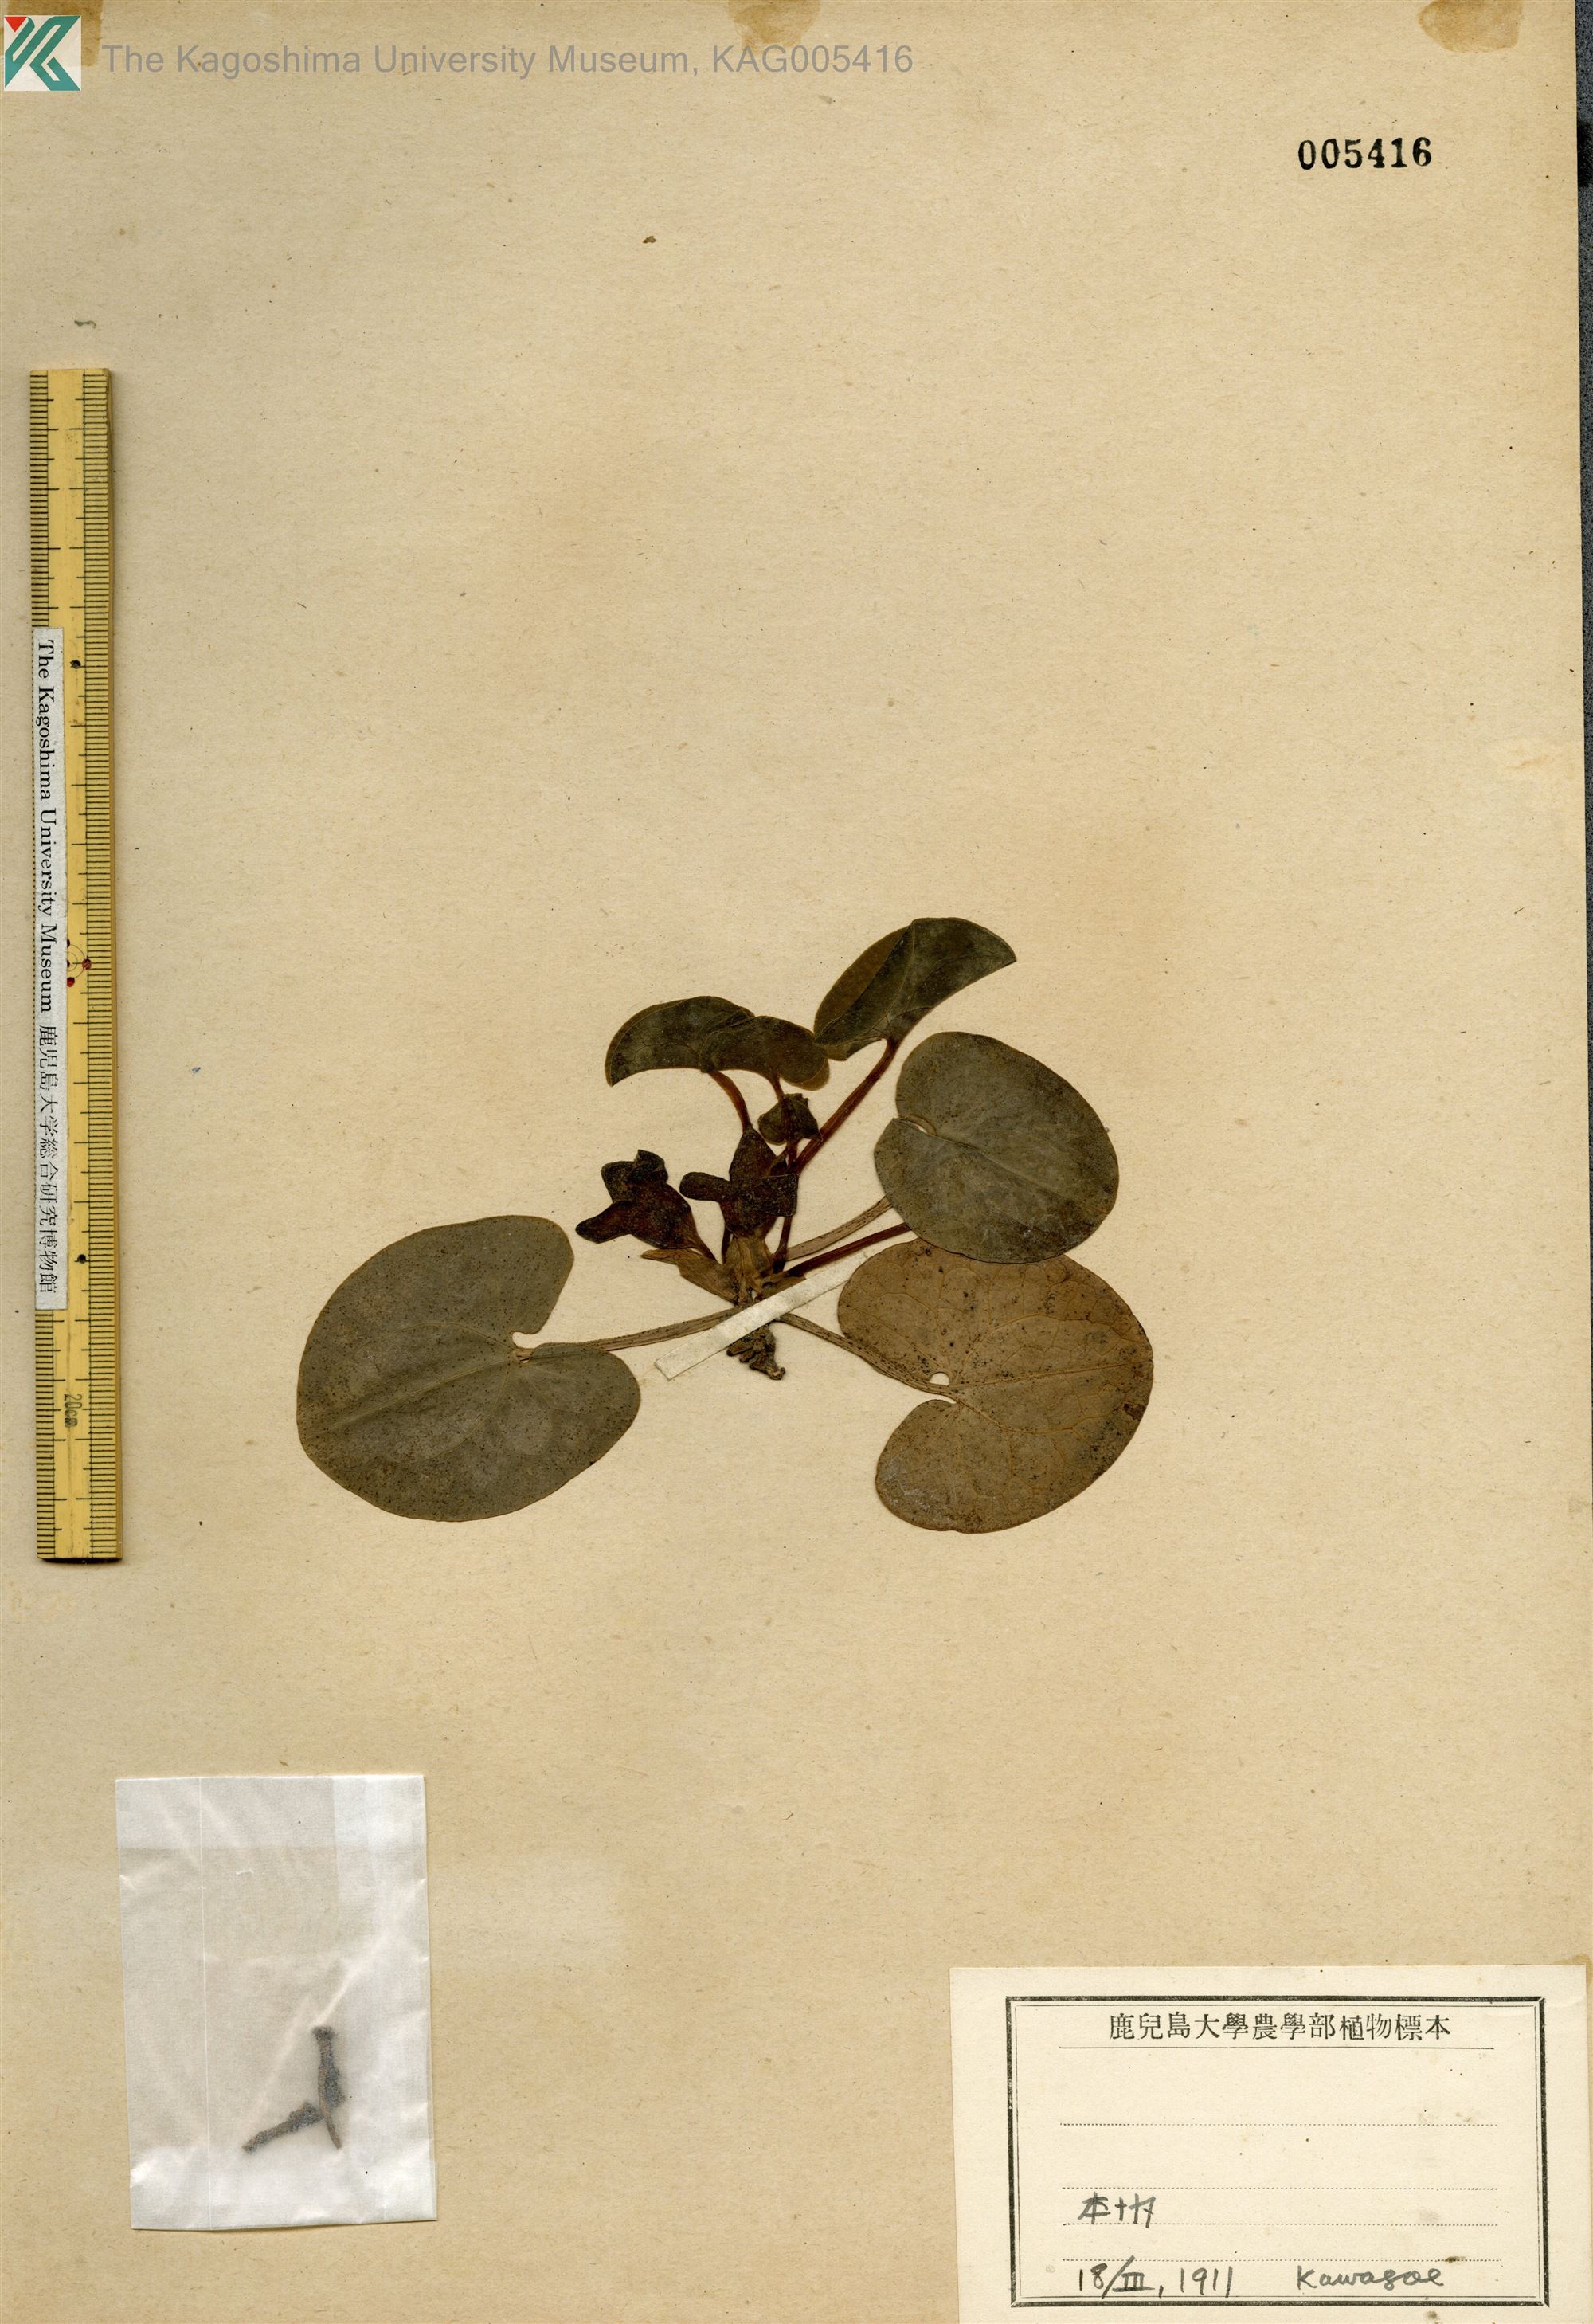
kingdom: Plantae
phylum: Tracheophyta
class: Magnoliopsida
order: Piperales
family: Aristolochiaceae
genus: Asarum
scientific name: Asarum blumei
